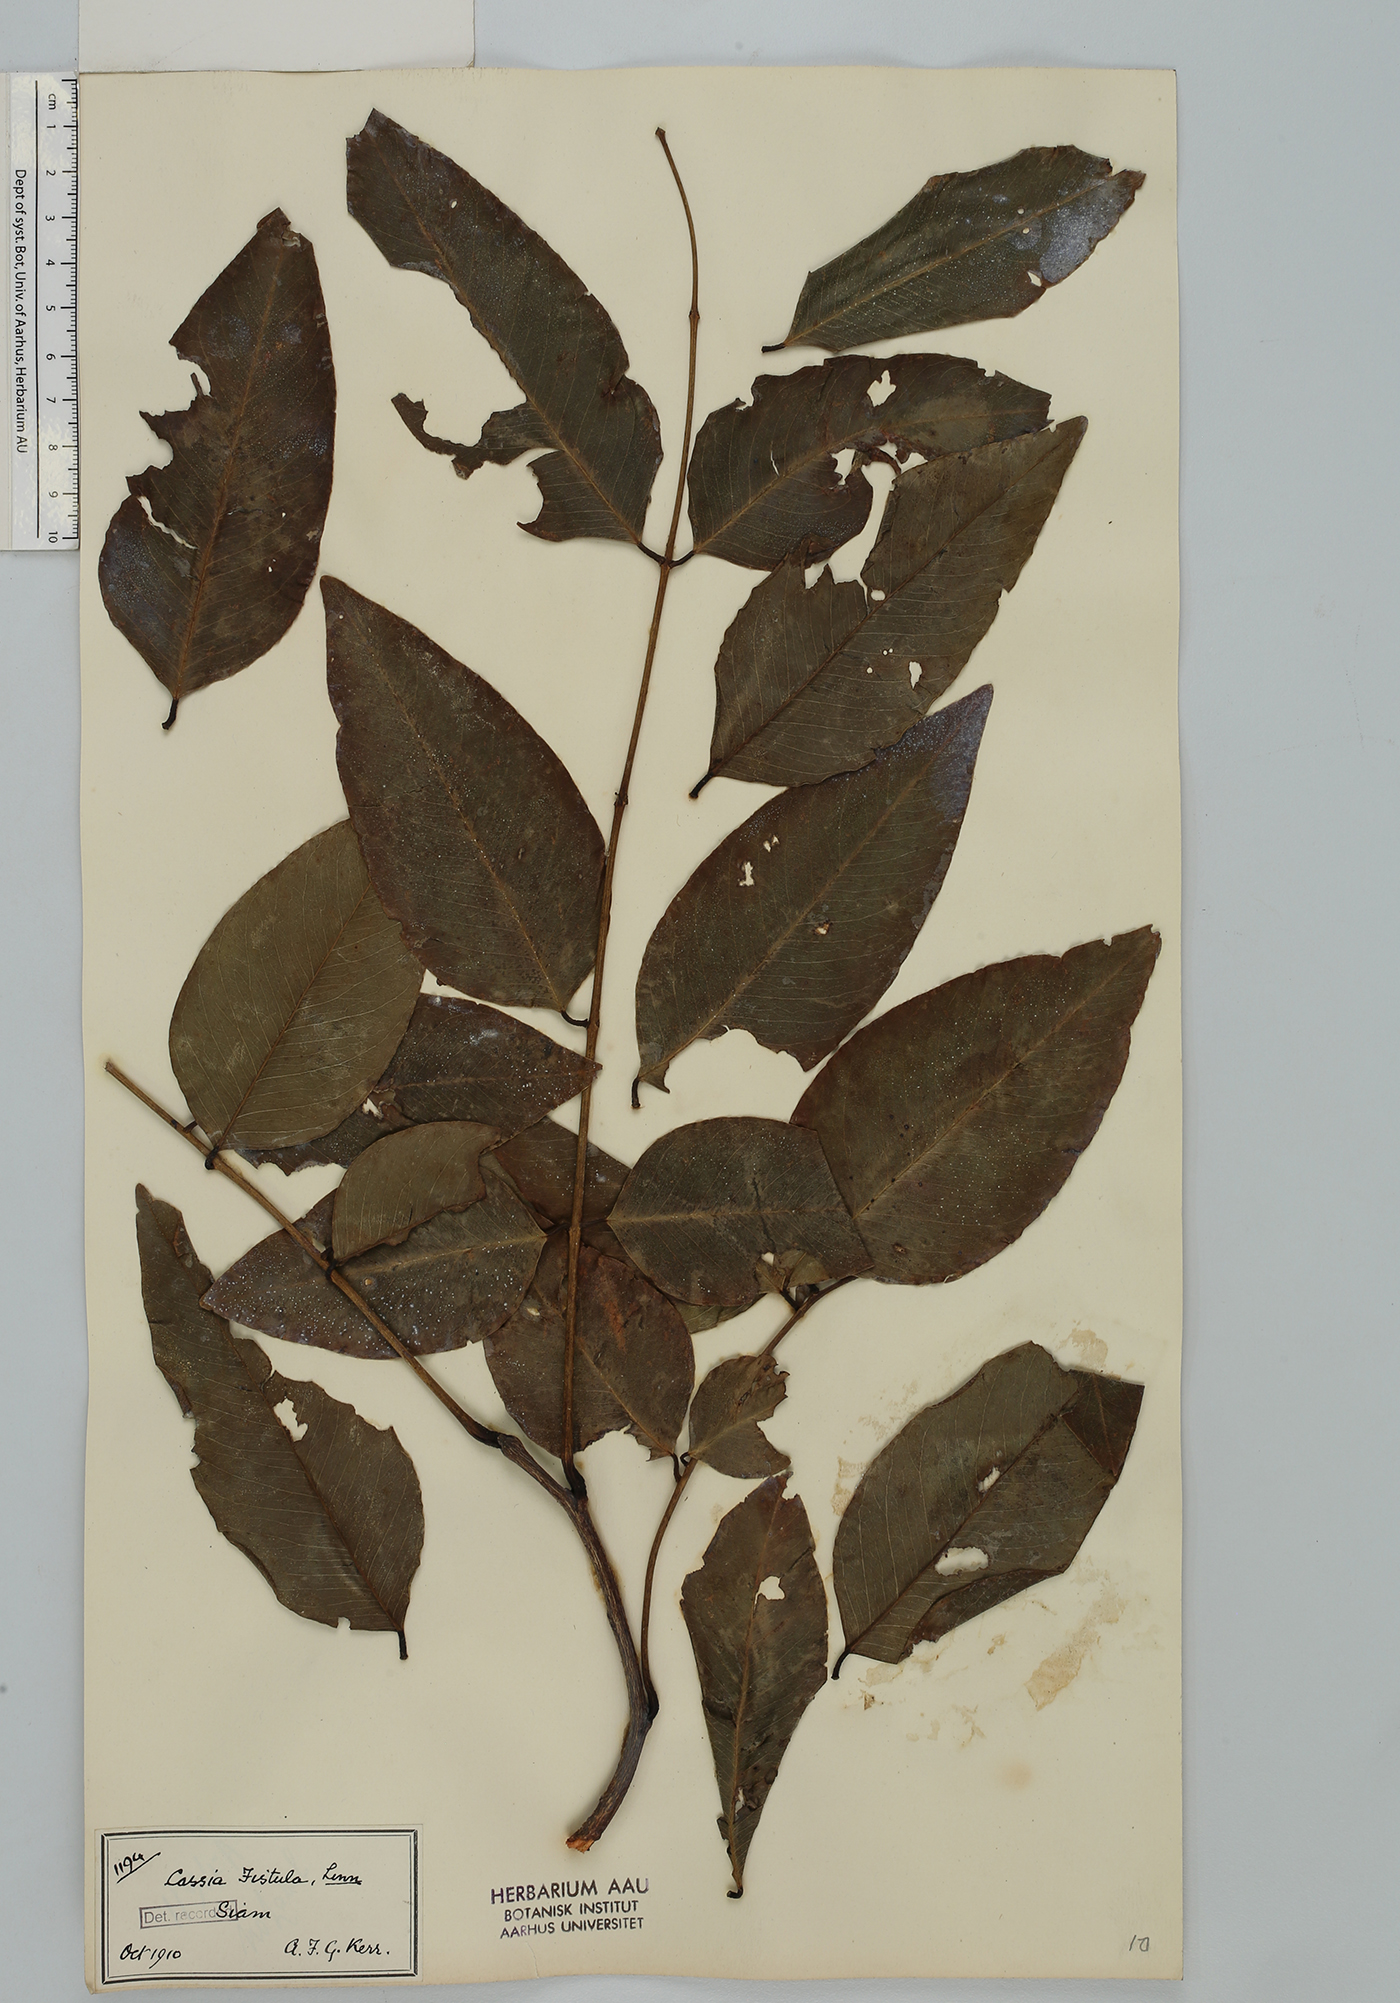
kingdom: Plantae
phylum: Tracheophyta
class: Magnoliopsida
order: Fabales
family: Fabaceae
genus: Cassia
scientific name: Cassia fistula
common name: Golden shower
